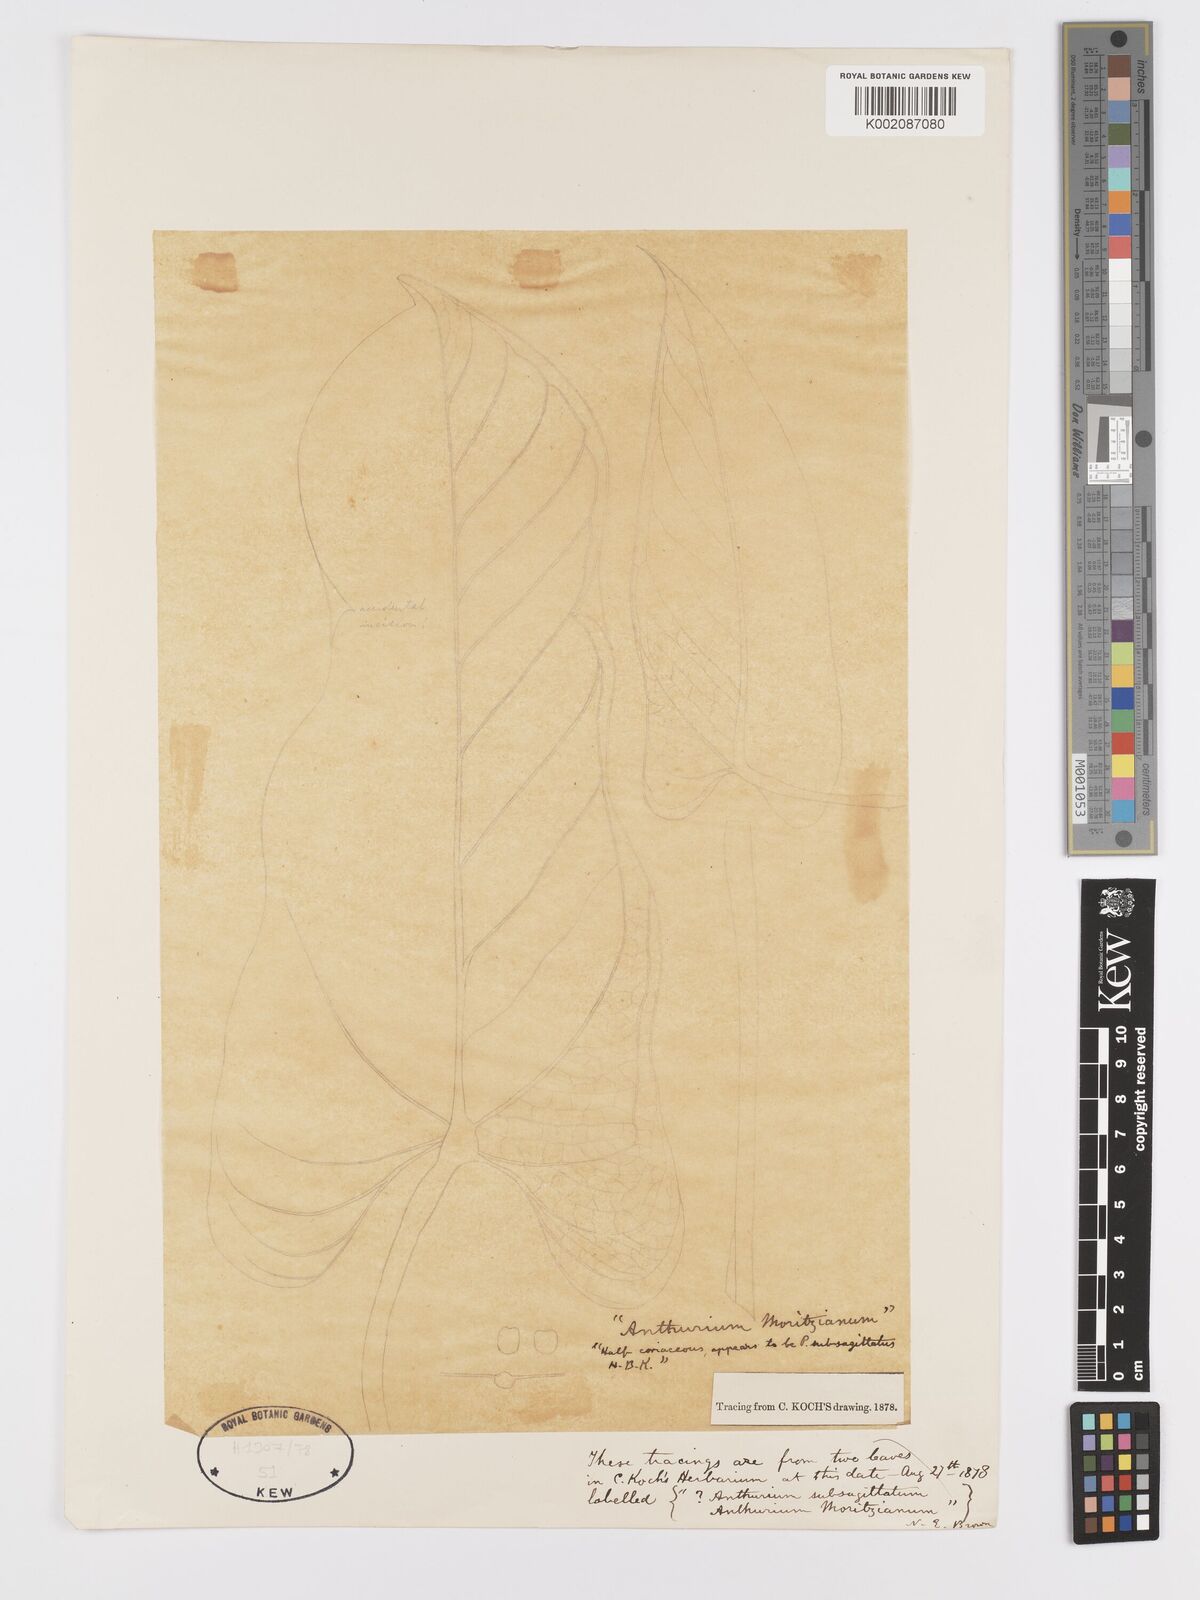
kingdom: Plantae
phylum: Tracheophyta
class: Liliopsida
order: Alismatales
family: Araceae
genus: Anthurium
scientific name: Anthurium
